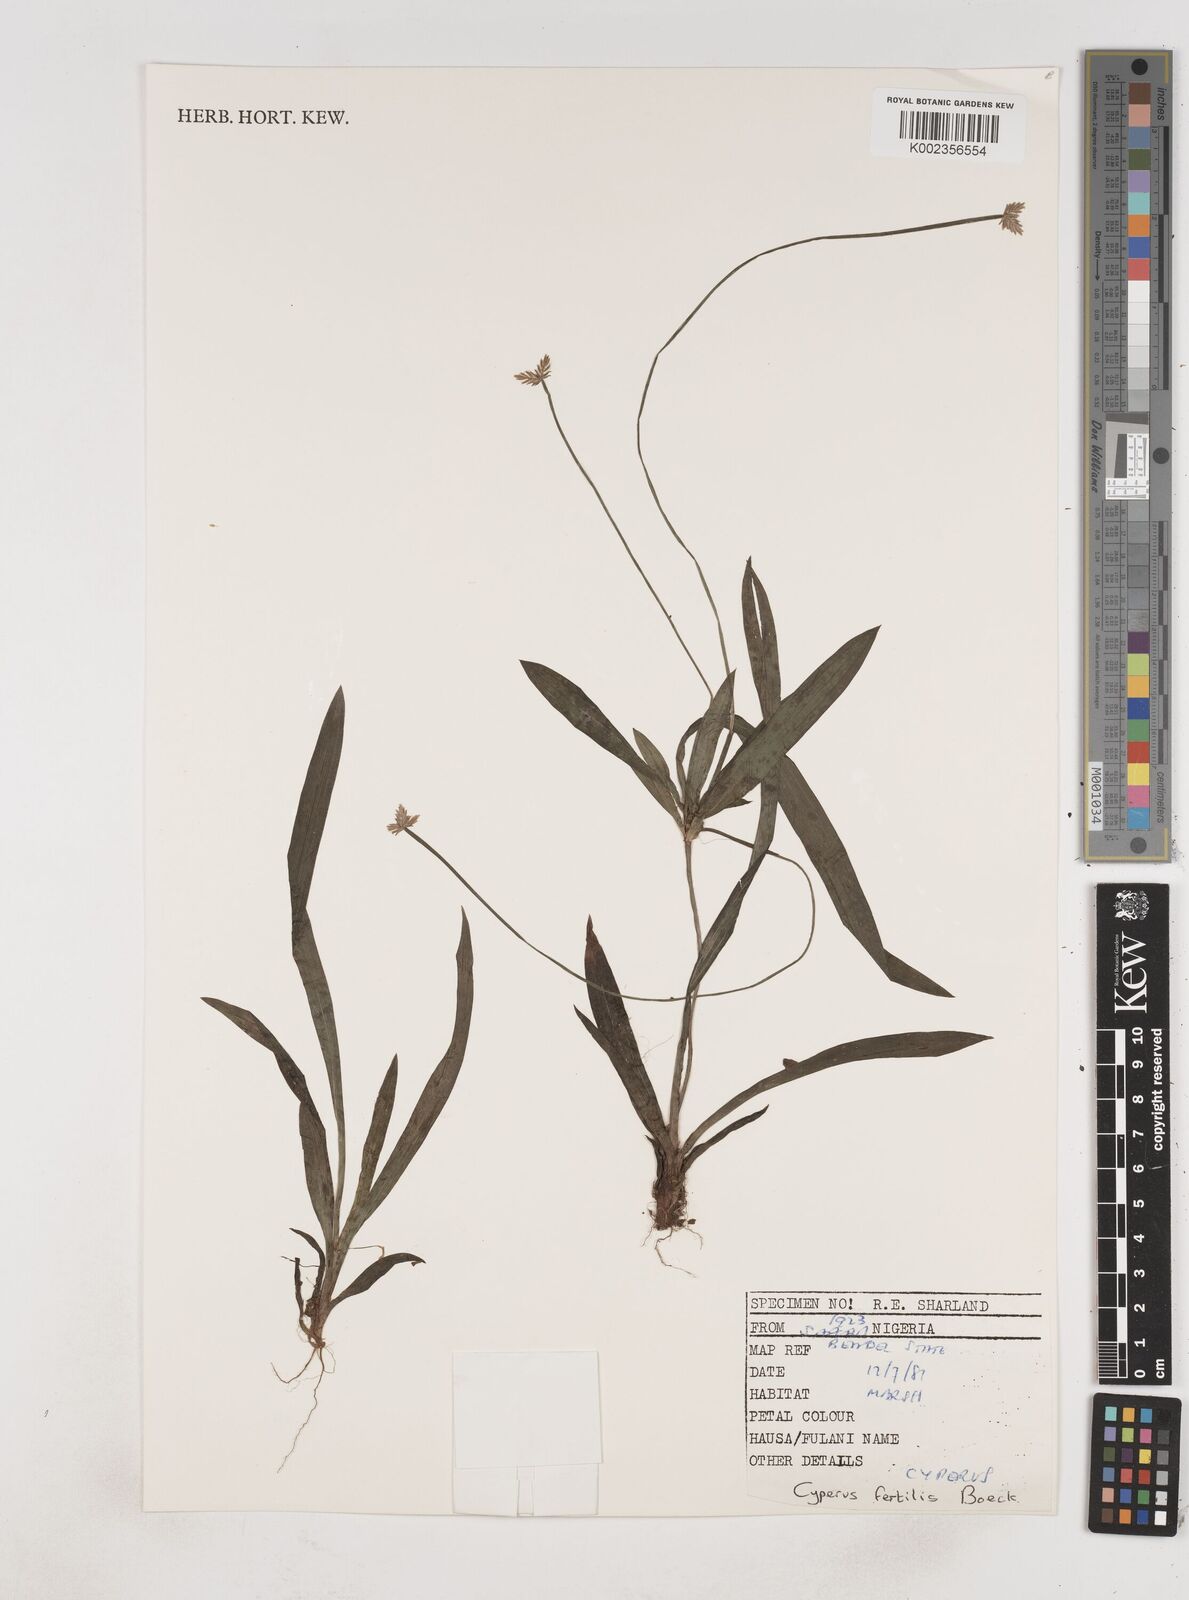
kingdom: Plantae
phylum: Tracheophyta
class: Liliopsida
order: Poales
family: Cyperaceae
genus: Cyperus
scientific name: Cyperus fertilis
